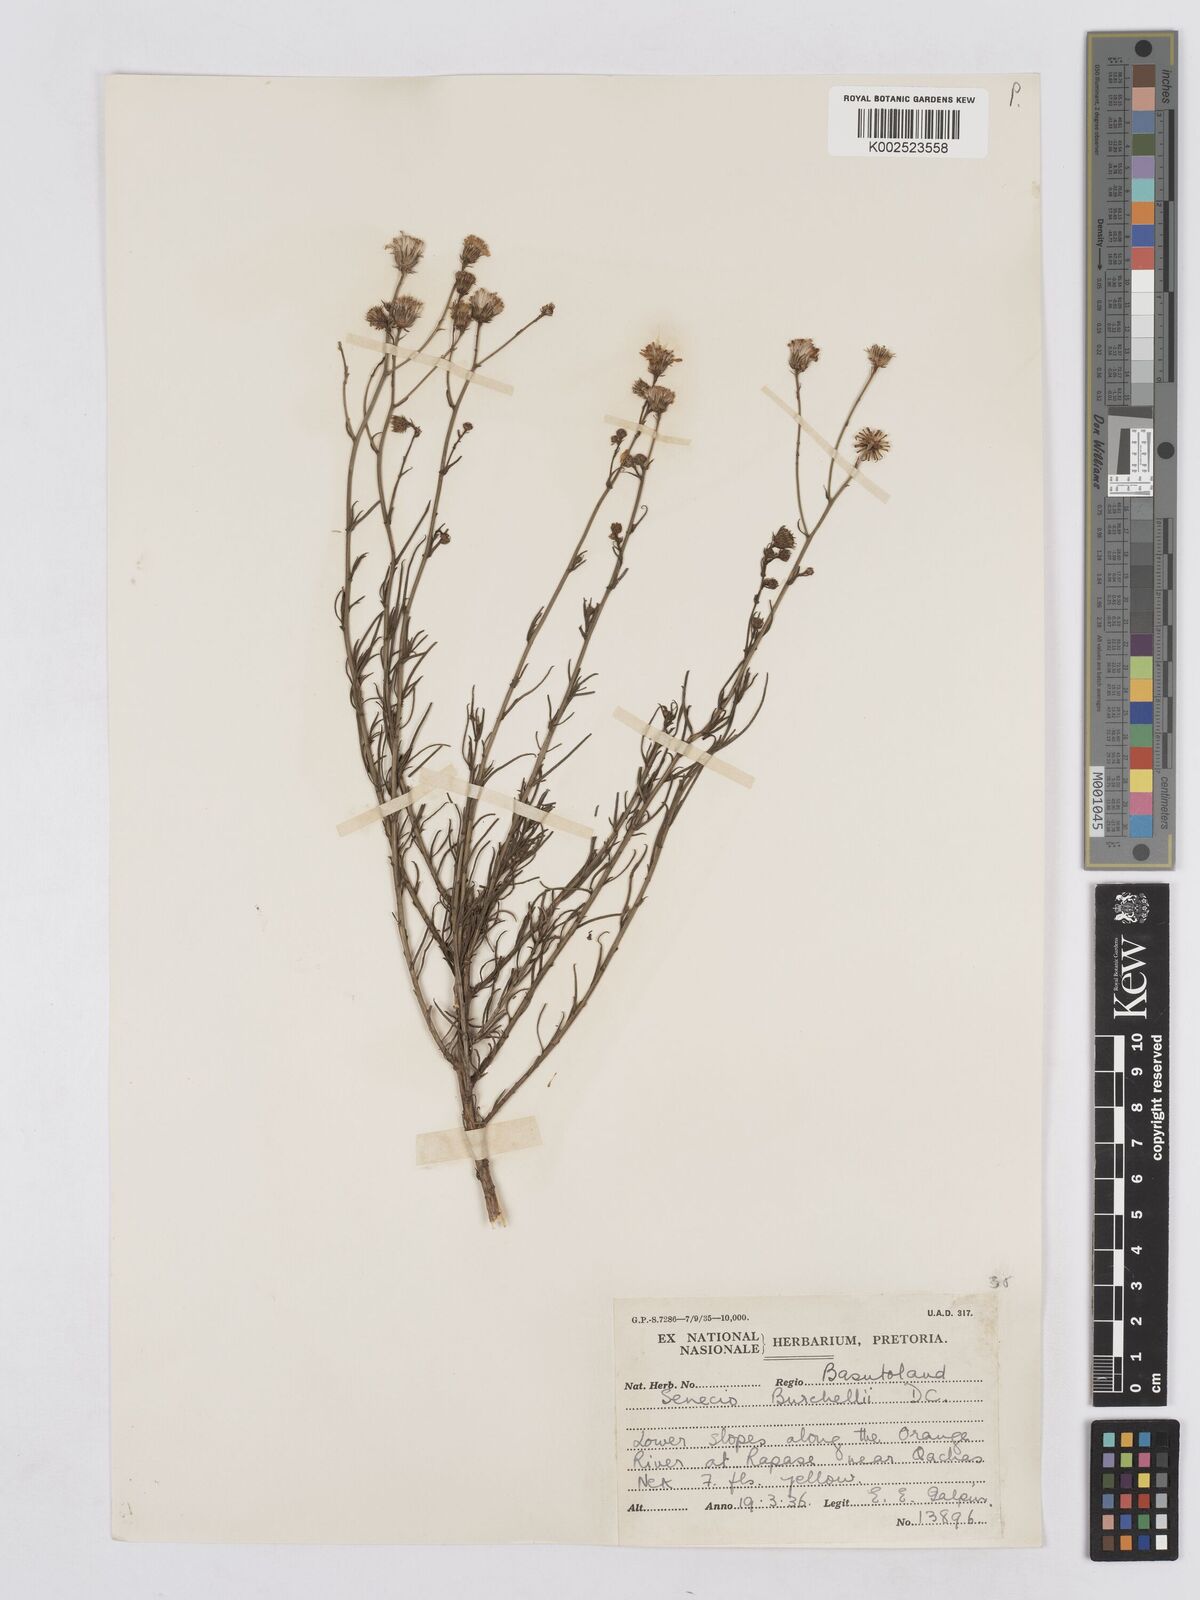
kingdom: Plantae
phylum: Tracheophyta
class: Magnoliopsida
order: Asterales
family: Asteraceae
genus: Senecio
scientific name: Senecio inaequidens
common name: Narrow-leaved ragwort
